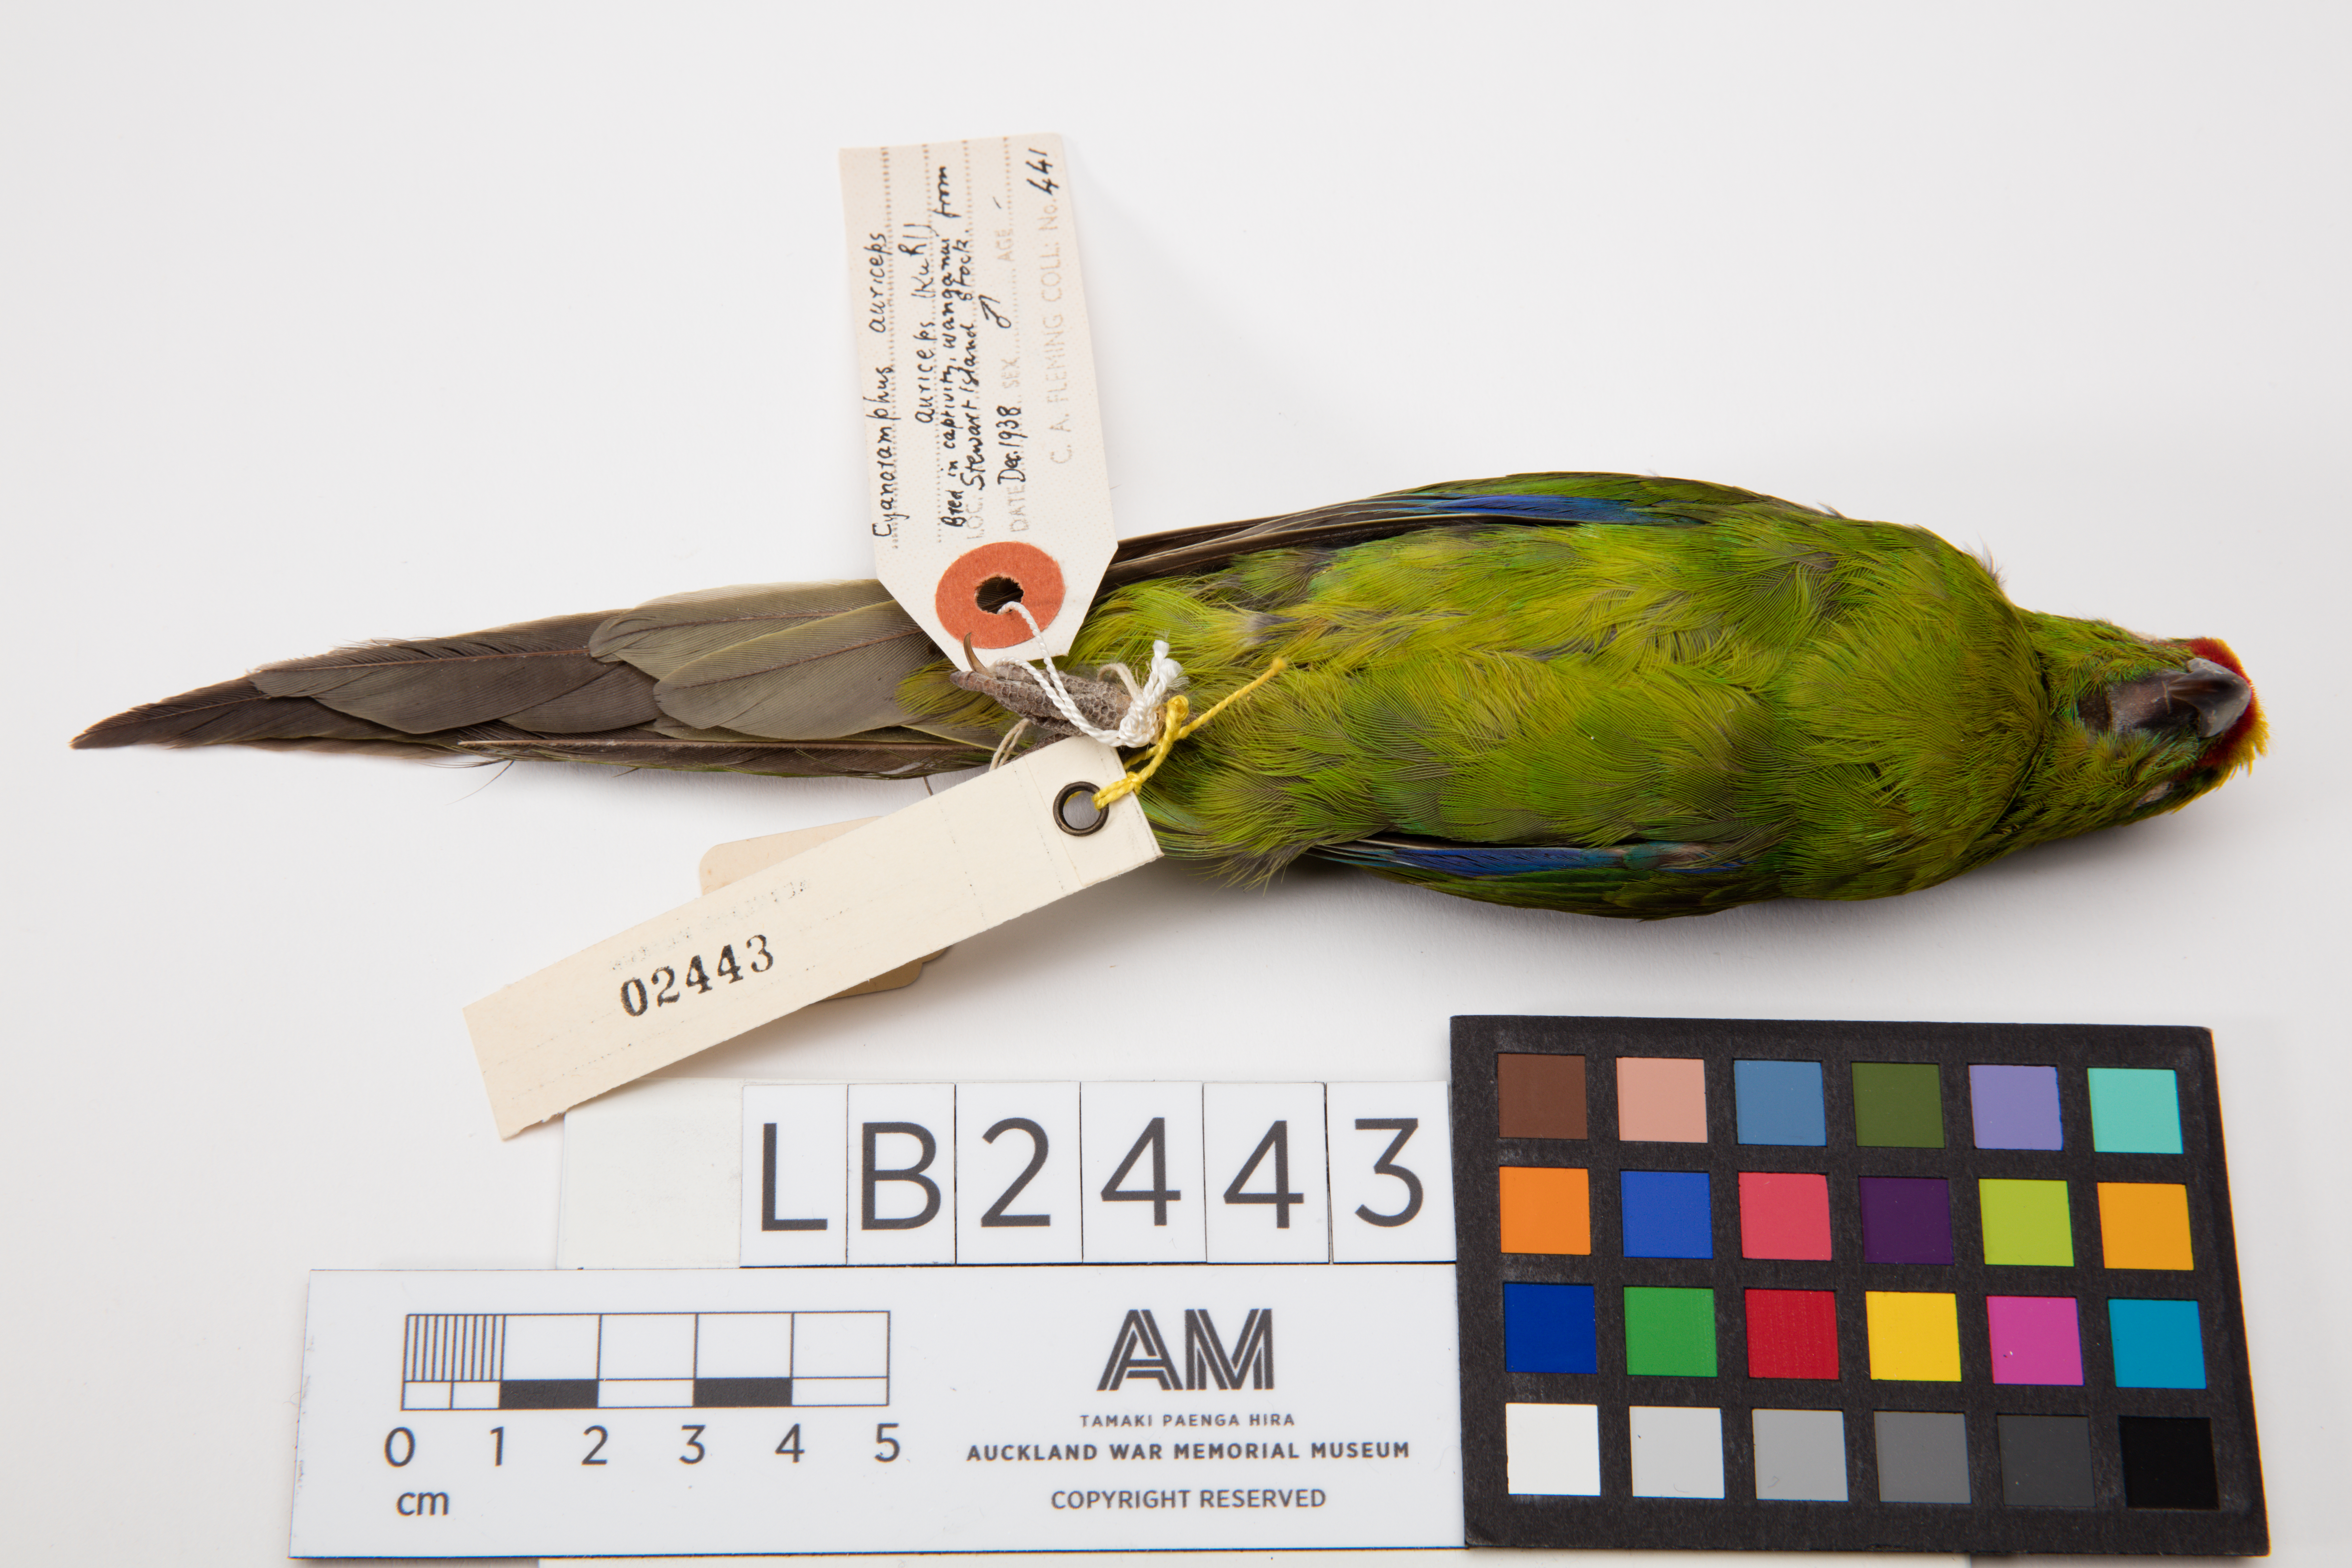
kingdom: Animalia
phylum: Chordata
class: Aves
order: Psittaciformes
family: Psittacidae
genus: Cyanoramphus
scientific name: Cyanoramphus auriceps
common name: Yellow-crowned parakeet
